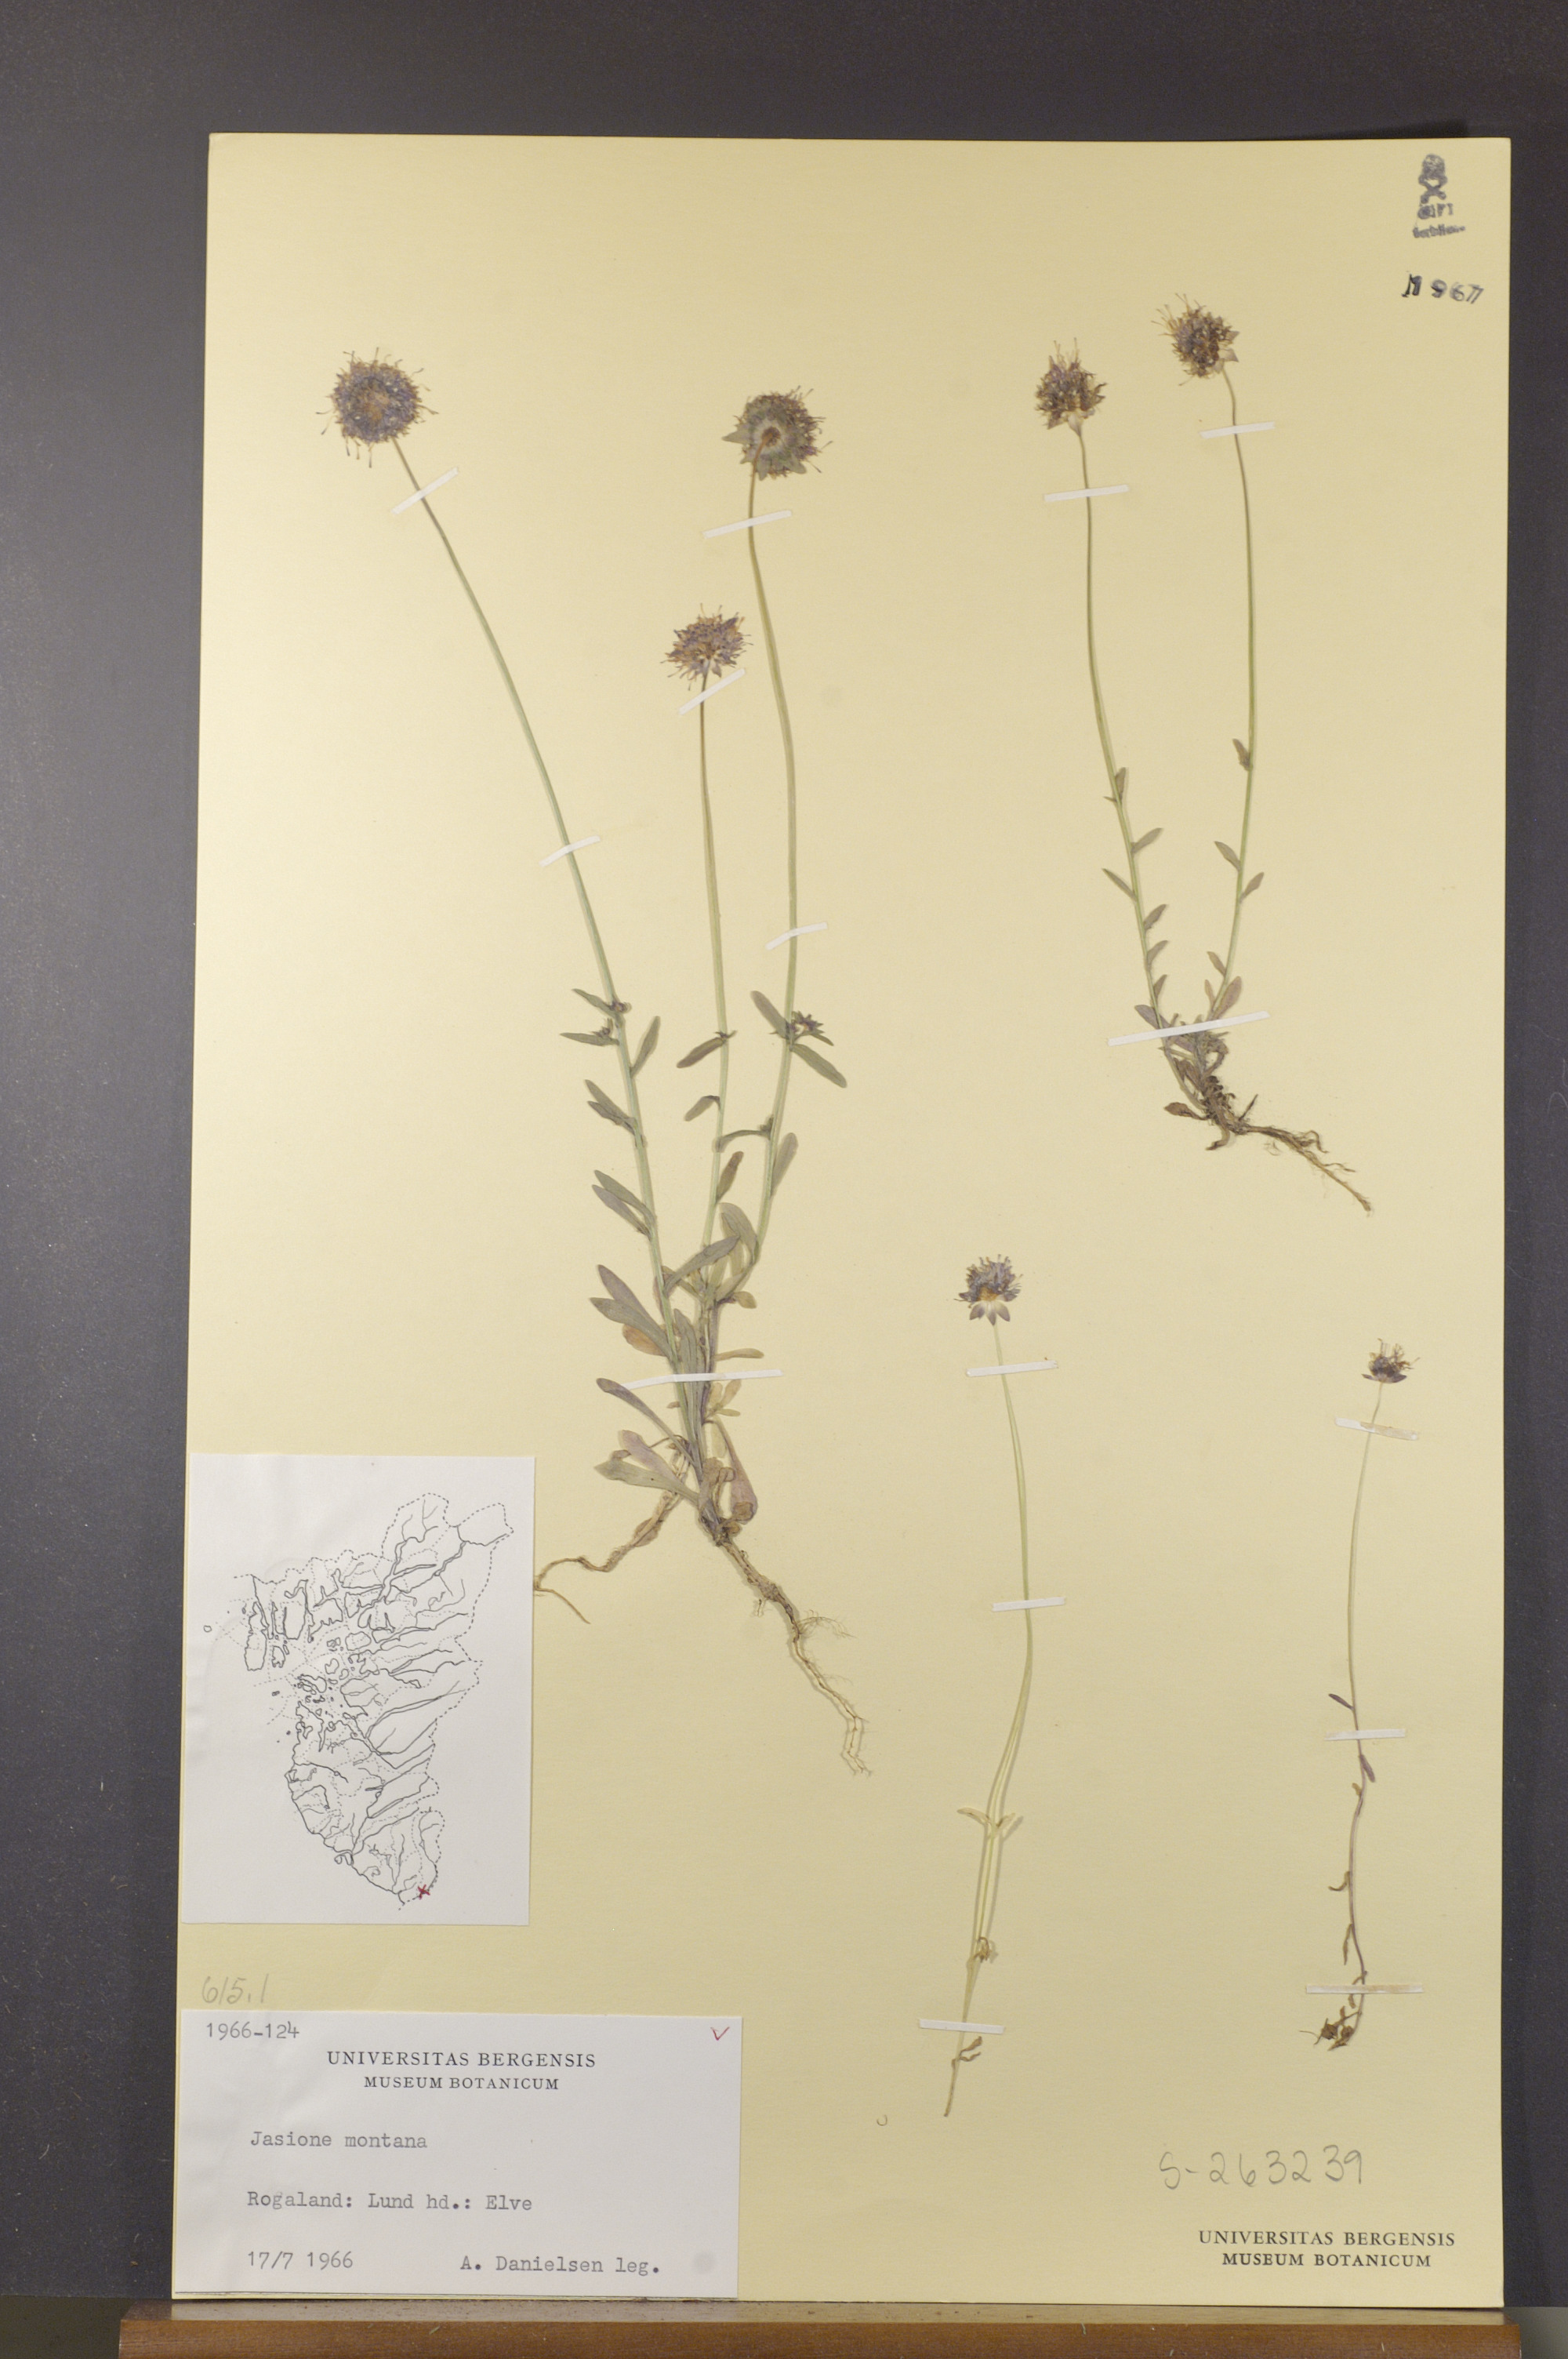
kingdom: Plantae
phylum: Tracheophyta
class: Magnoliopsida
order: Asterales
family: Campanulaceae
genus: Jasione
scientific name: Jasione montana
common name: Sheep's-bit
